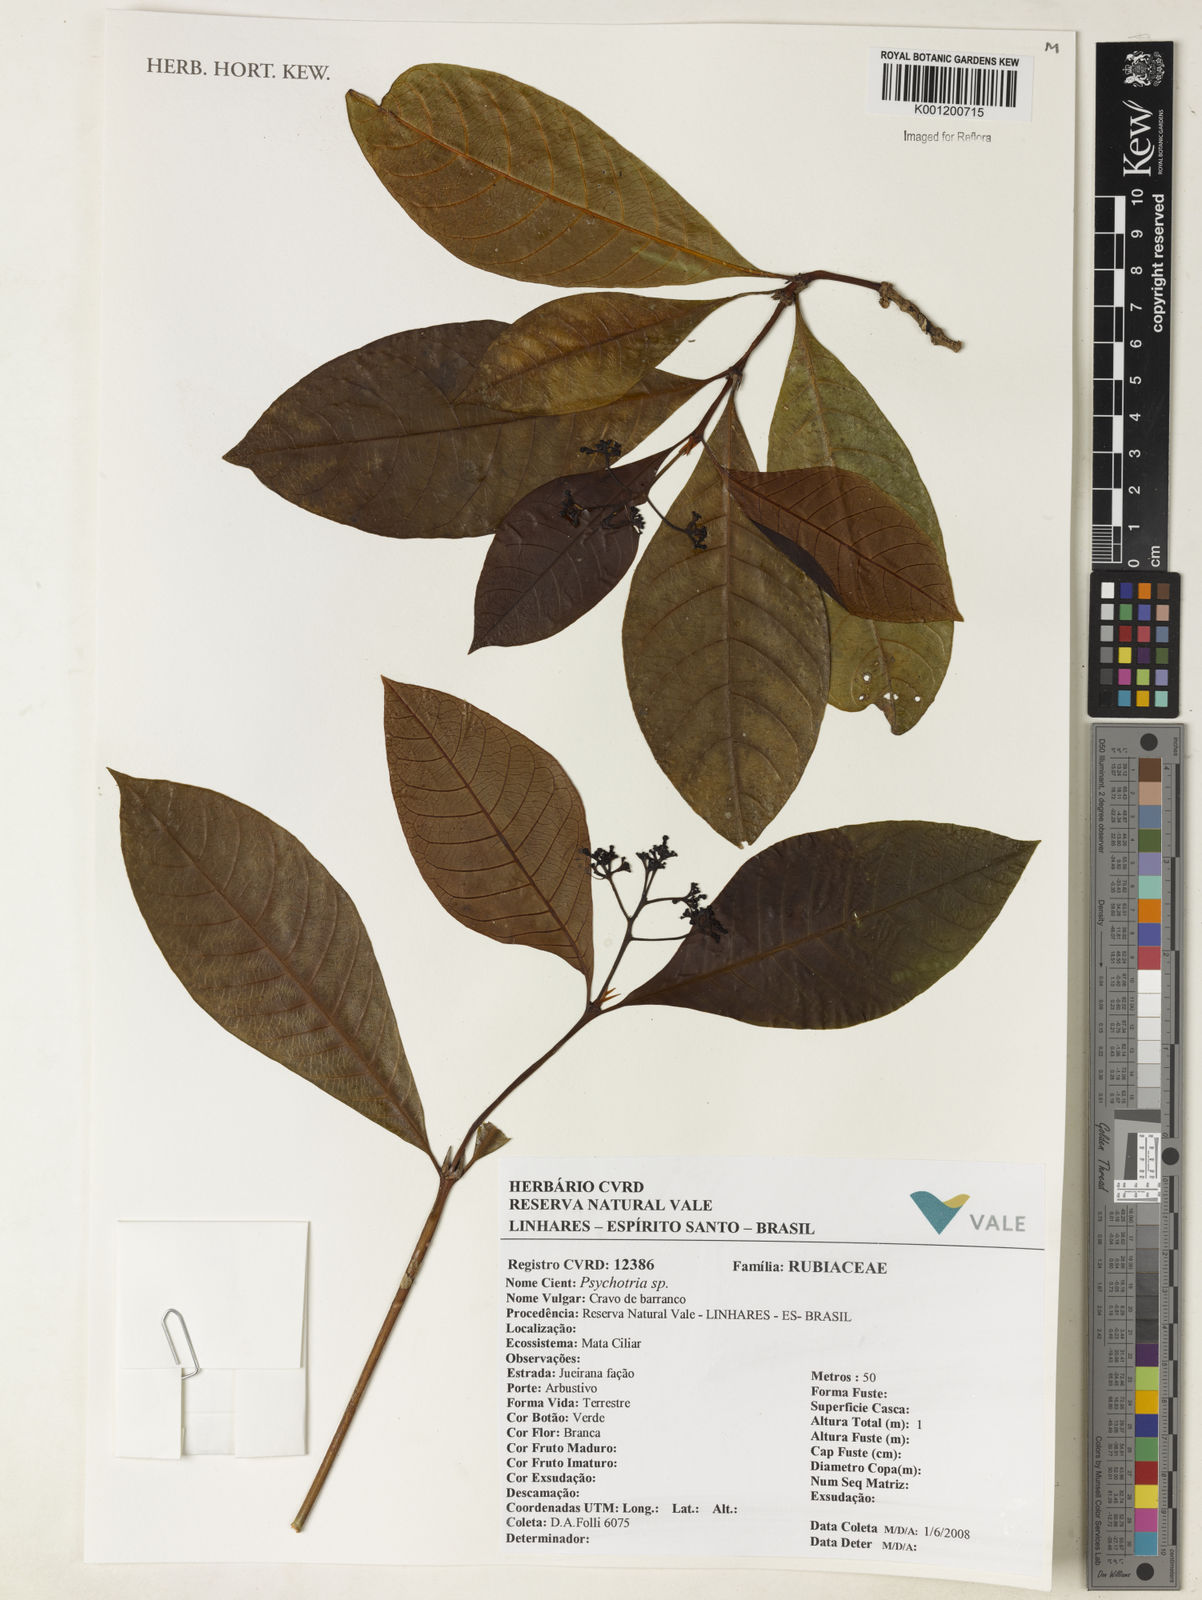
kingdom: Plantae
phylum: Tracheophyta
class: Magnoliopsida
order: Gentianales
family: Rubiaceae
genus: Psychotria
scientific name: Psychotria
